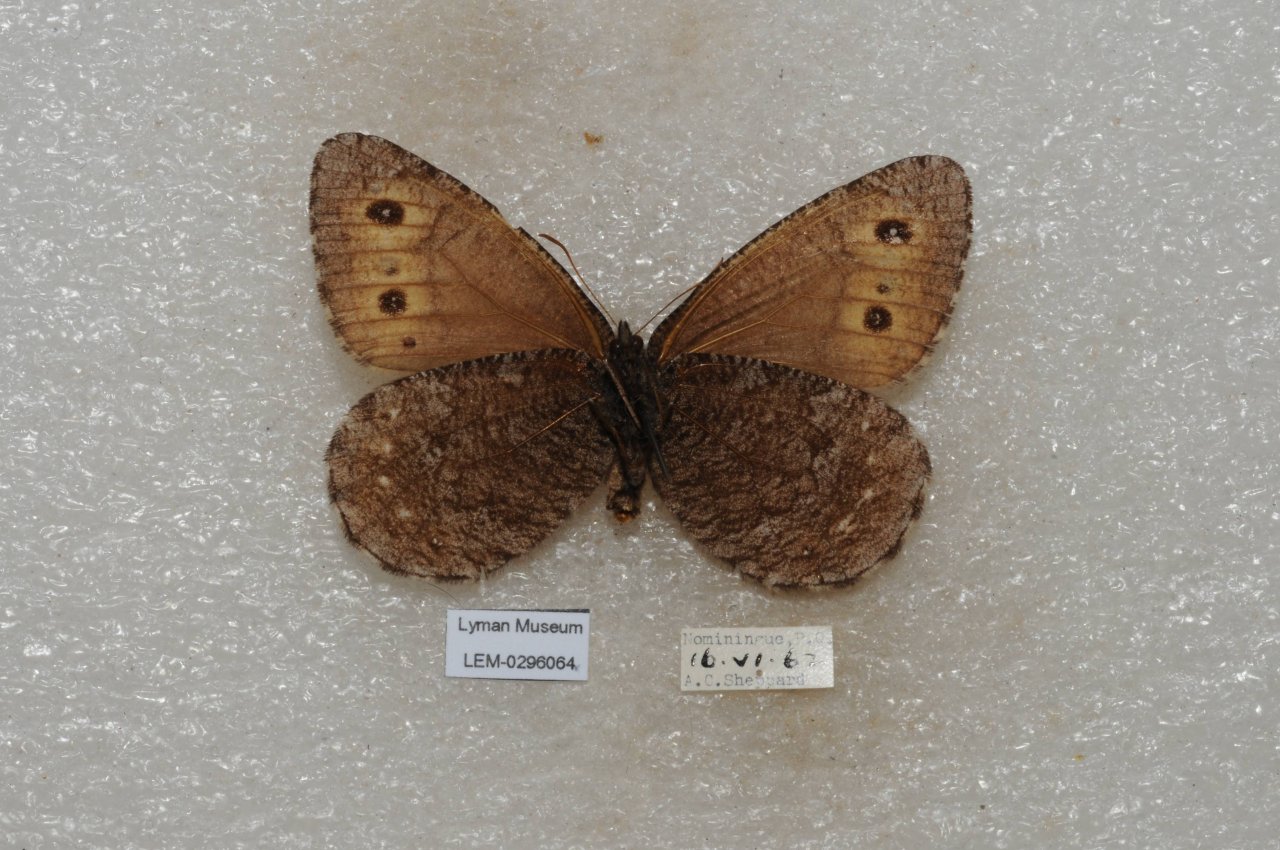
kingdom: Animalia
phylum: Arthropoda
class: Insecta
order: Lepidoptera
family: Nymphalidae
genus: Oeneis
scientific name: Oeneis jutta
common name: Jutta Arctic
